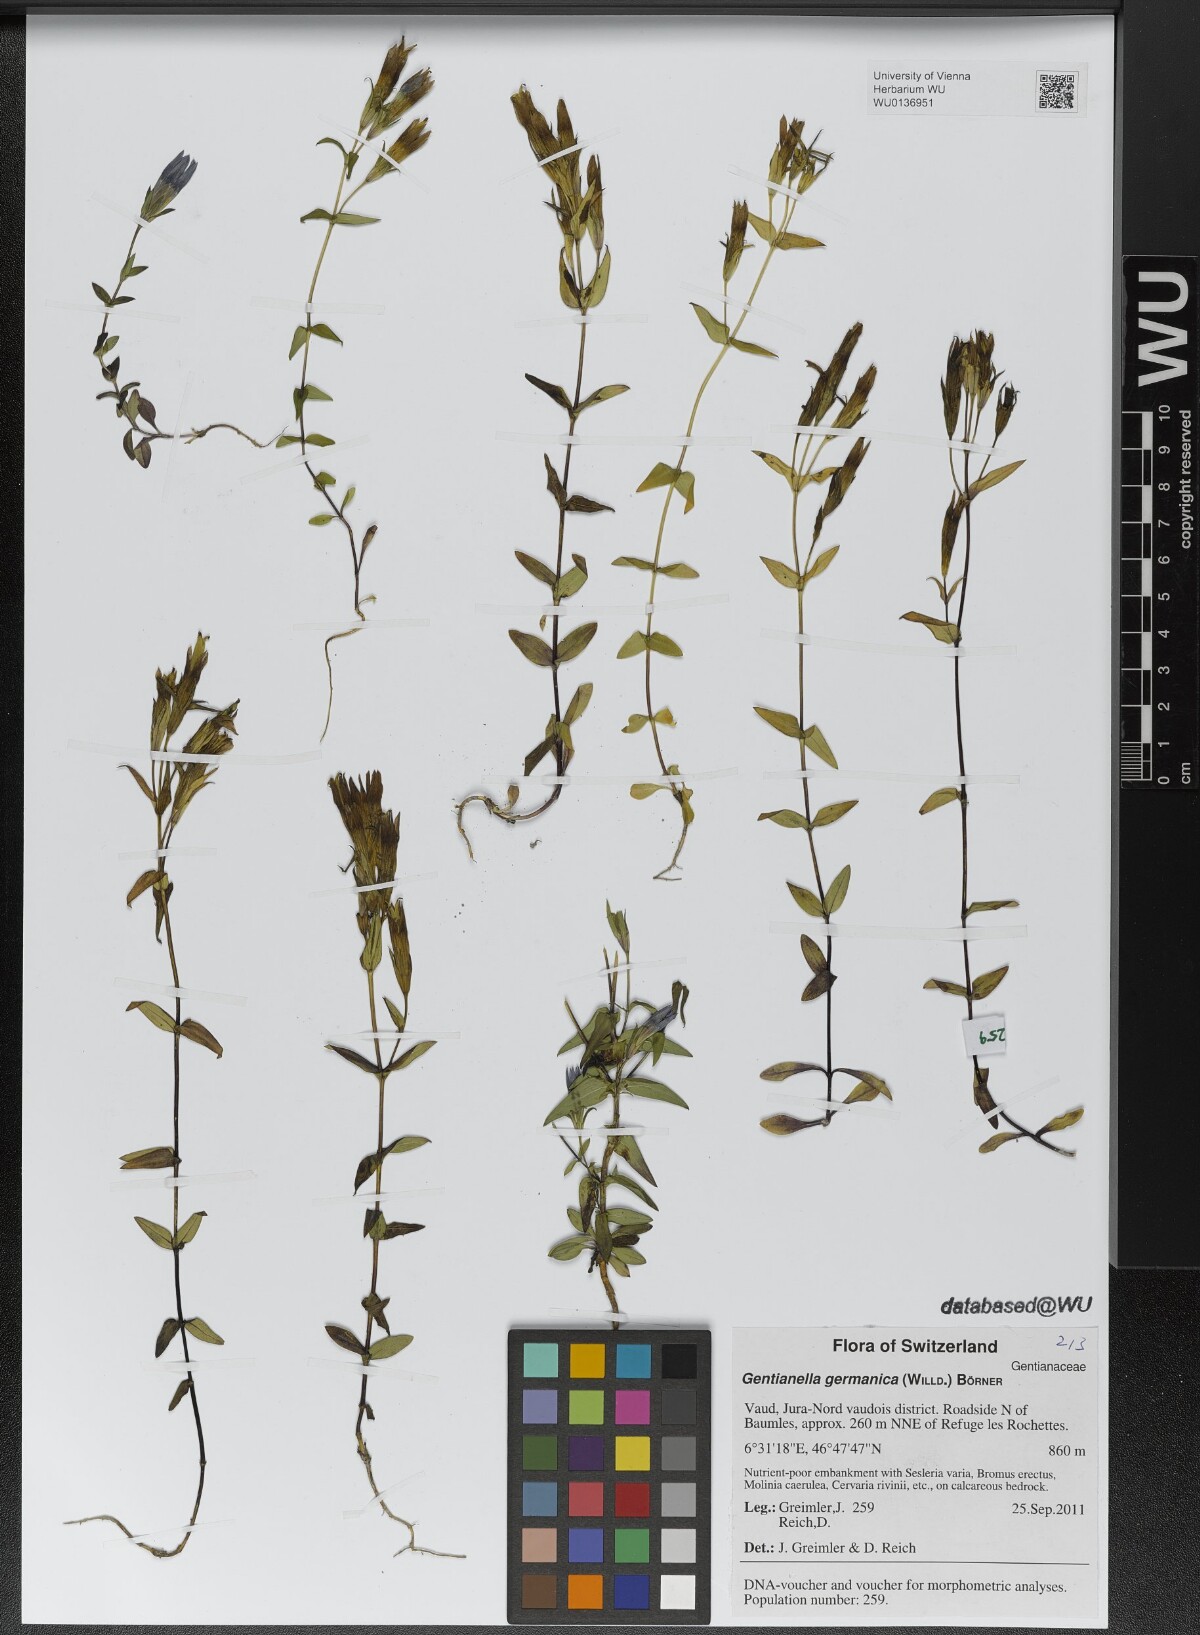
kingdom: Plantae
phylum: Tracheophyta
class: Magnoliopsida
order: Gentianales
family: Gentianaceae
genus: Gentianella
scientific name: Gentianella germanica
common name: Chiltern-gentian
